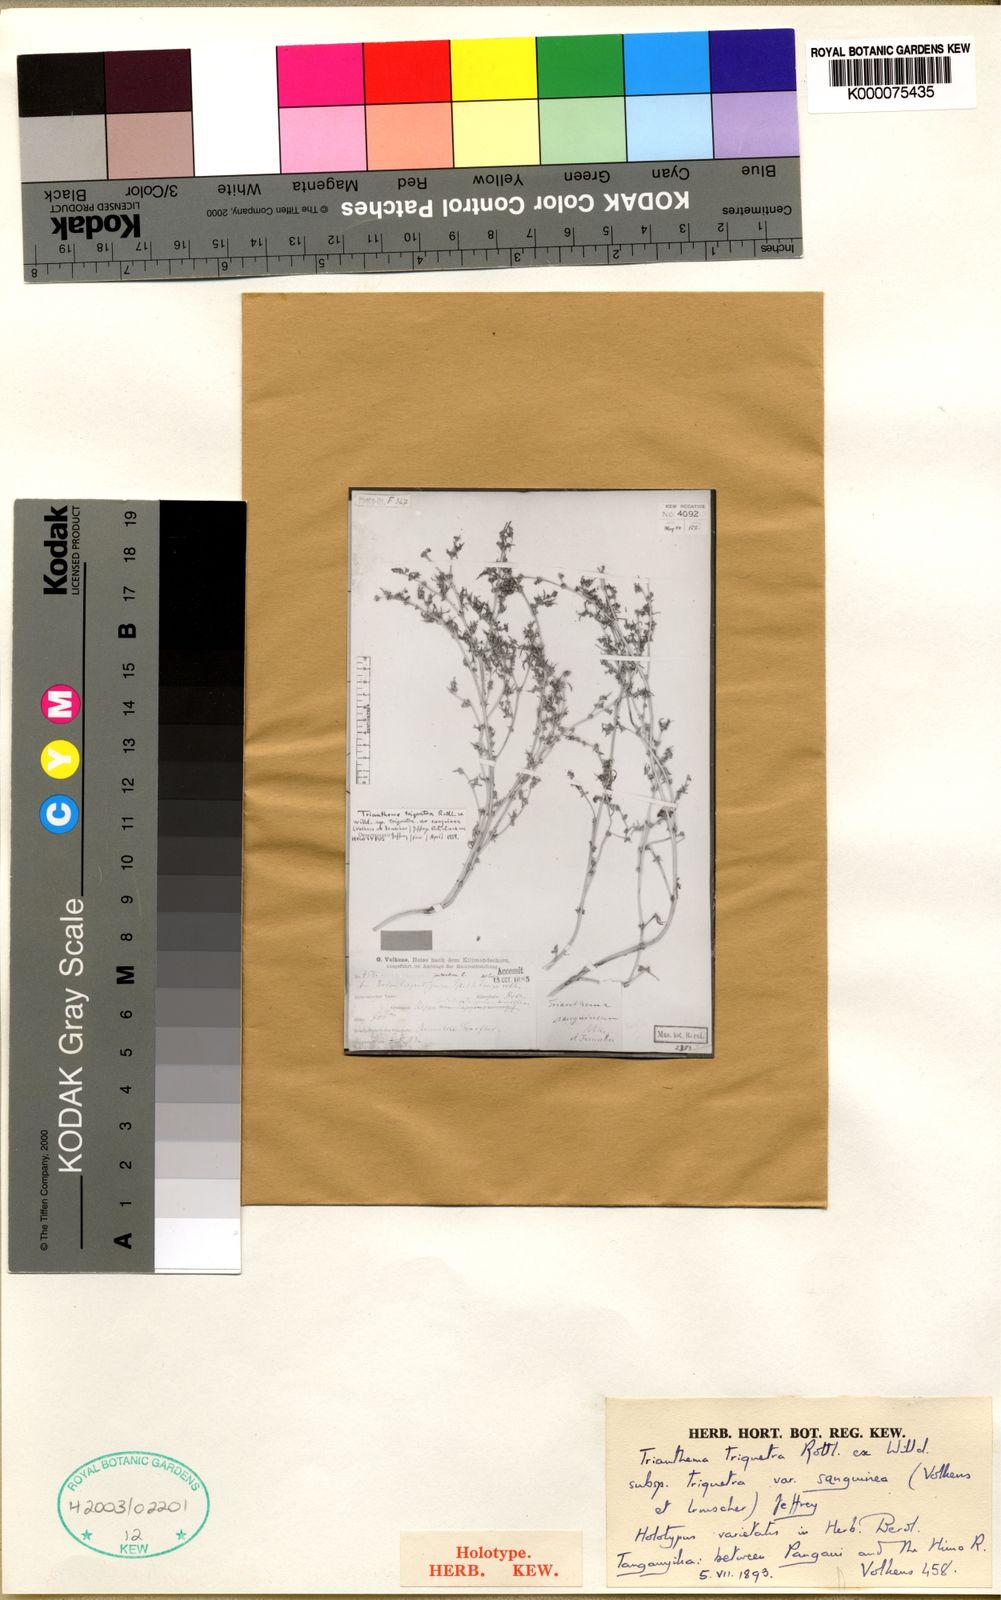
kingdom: Plantae
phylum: Tracheophyta
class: Magnoliopsida
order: Caryophyllales
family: Aizoaceae
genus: Trianthema
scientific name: Trianthema triquetrum
